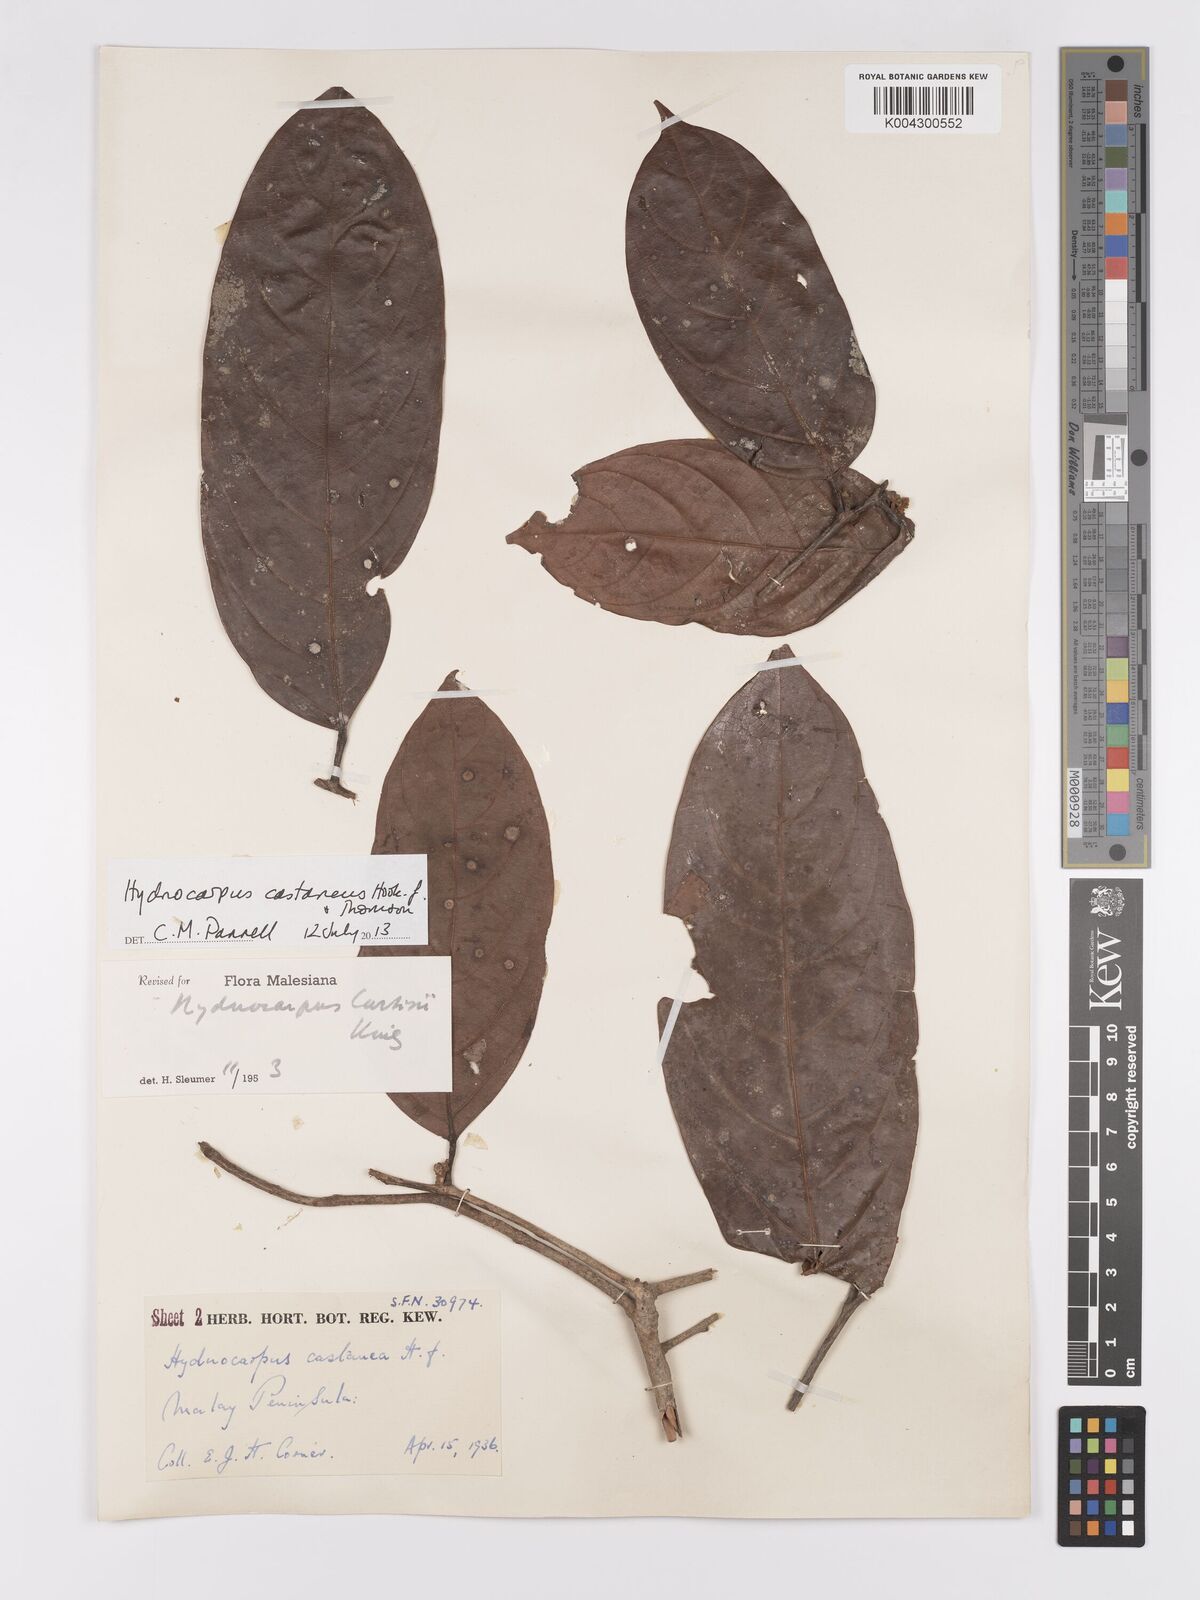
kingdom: Plantae
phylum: Tracheophyta
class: Magnoliopsida
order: Malpighiales
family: Achariaceae
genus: Hydnocarpus
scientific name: Hydnocarpus curtisii
